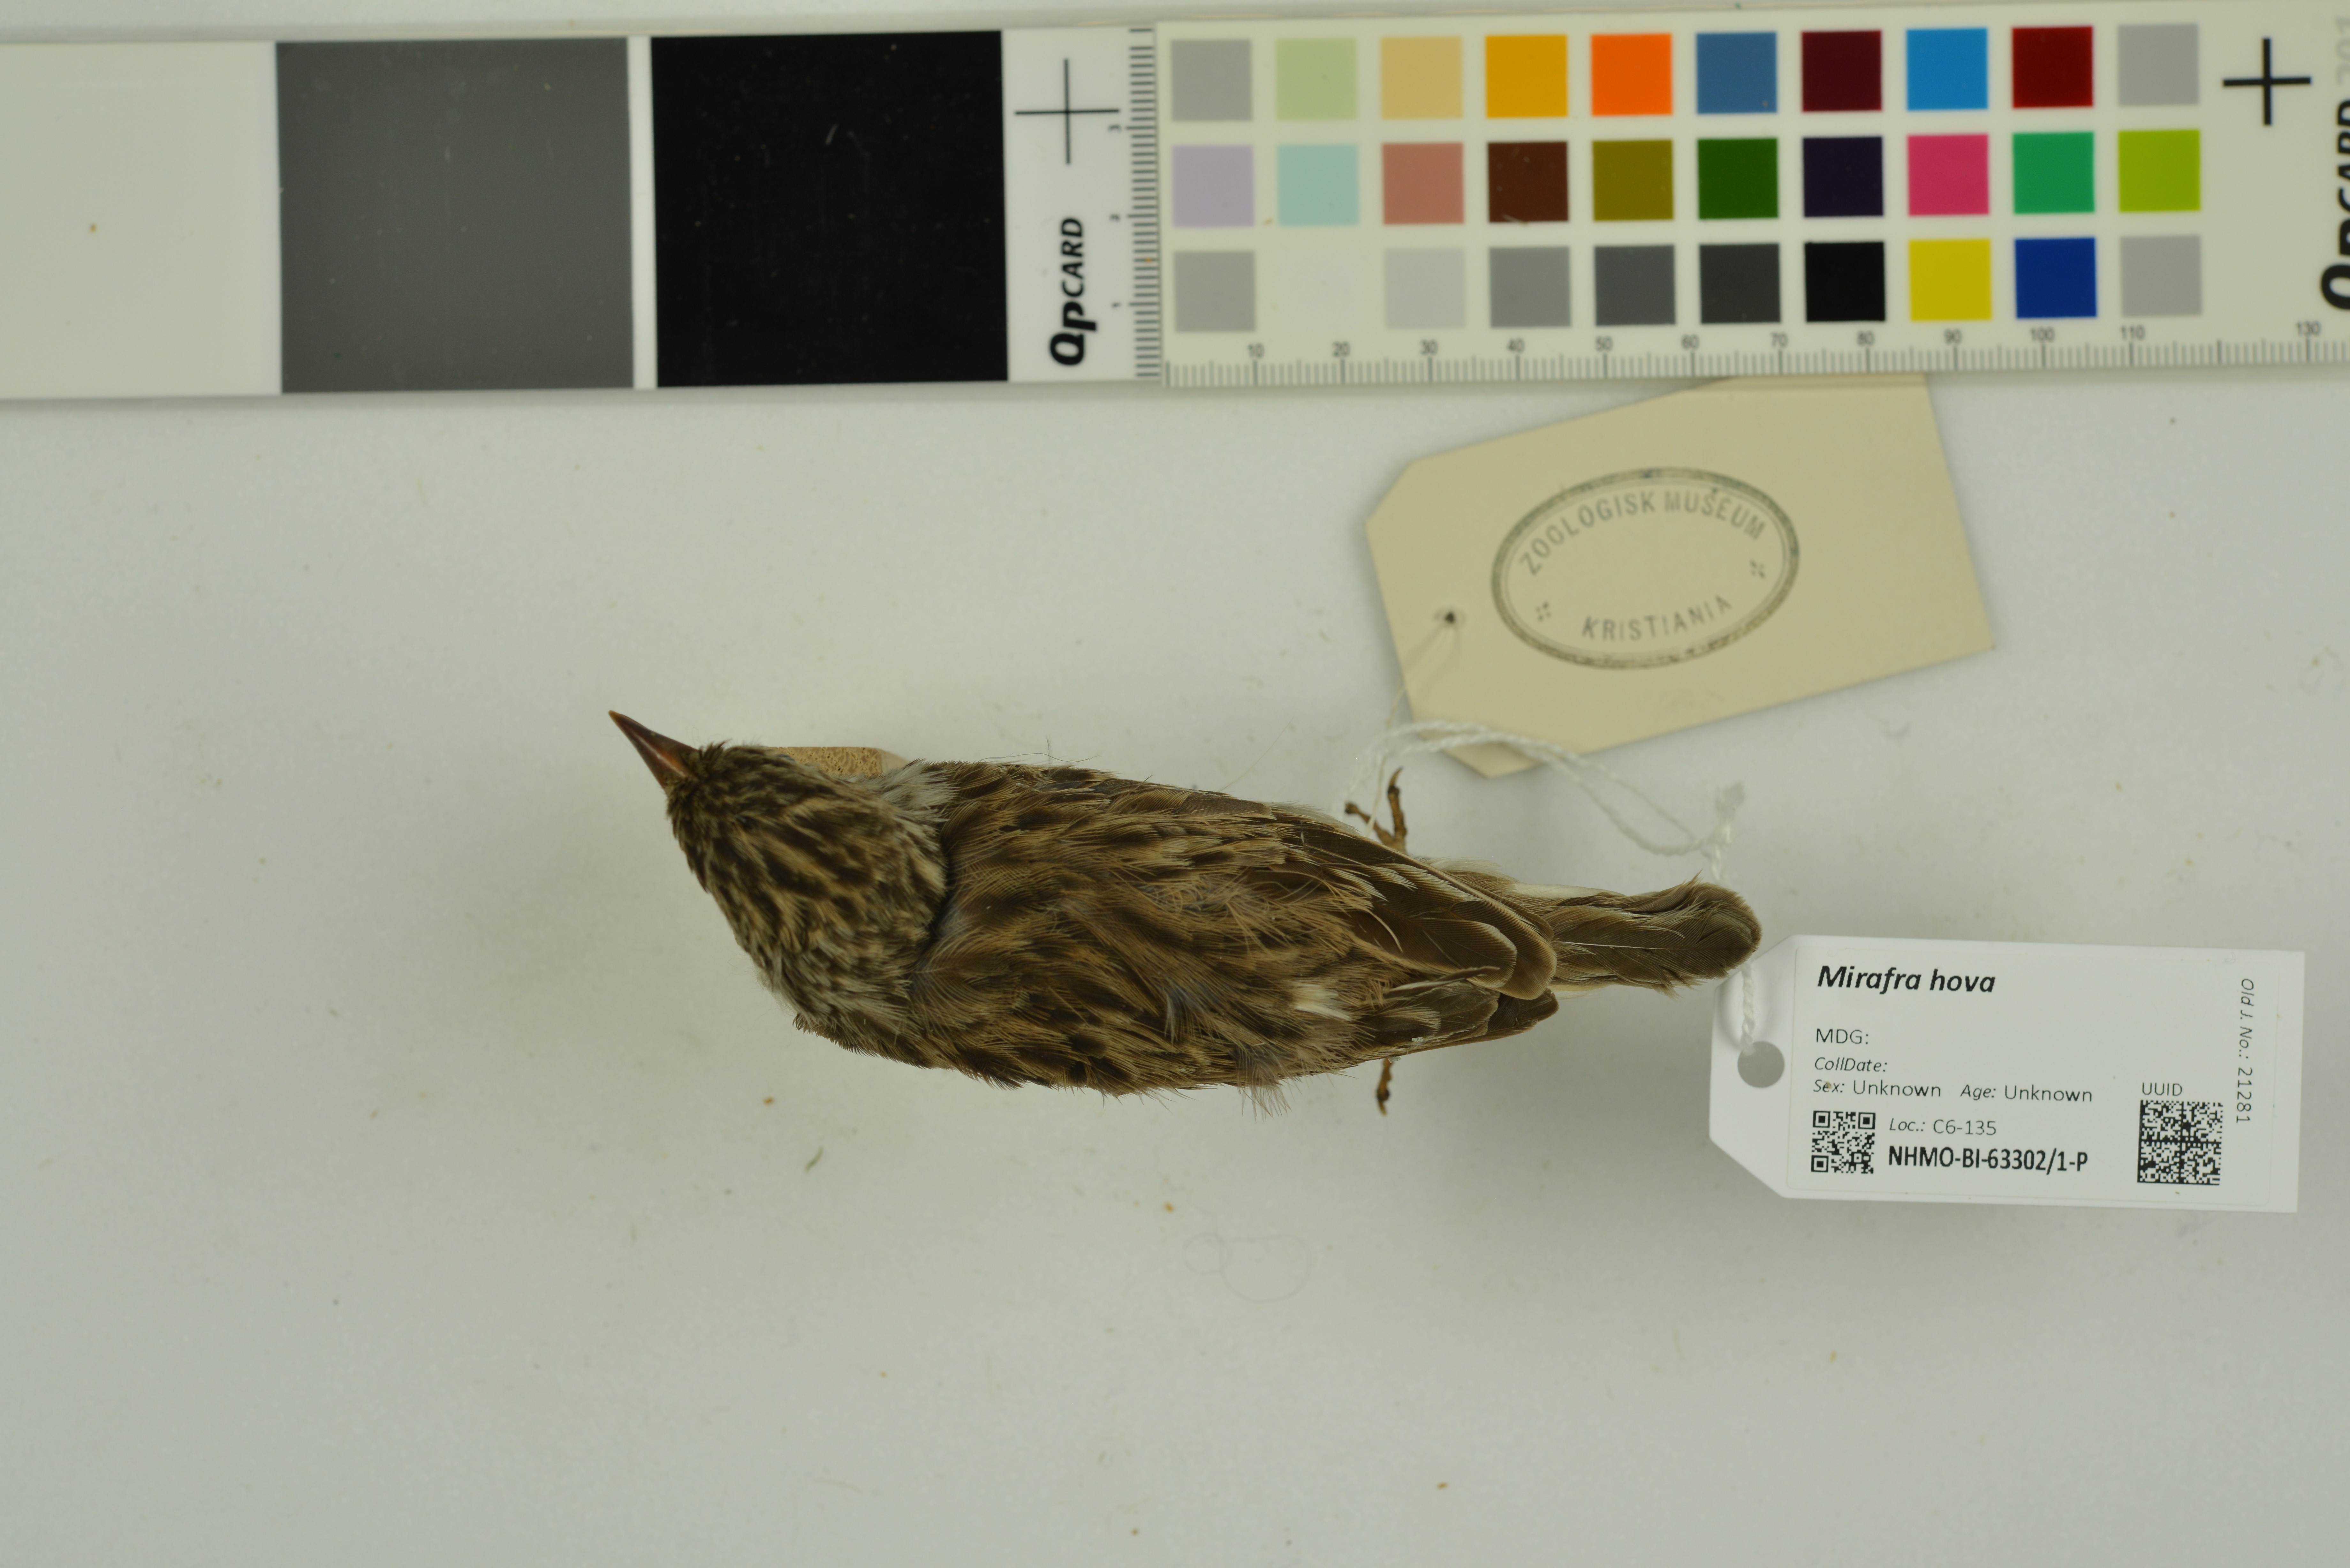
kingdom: Animalia
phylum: Chordata
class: Aves
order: Passeriformes
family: Alaudidae
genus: Mirafra
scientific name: Mirafra hova
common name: Madagascar lark
